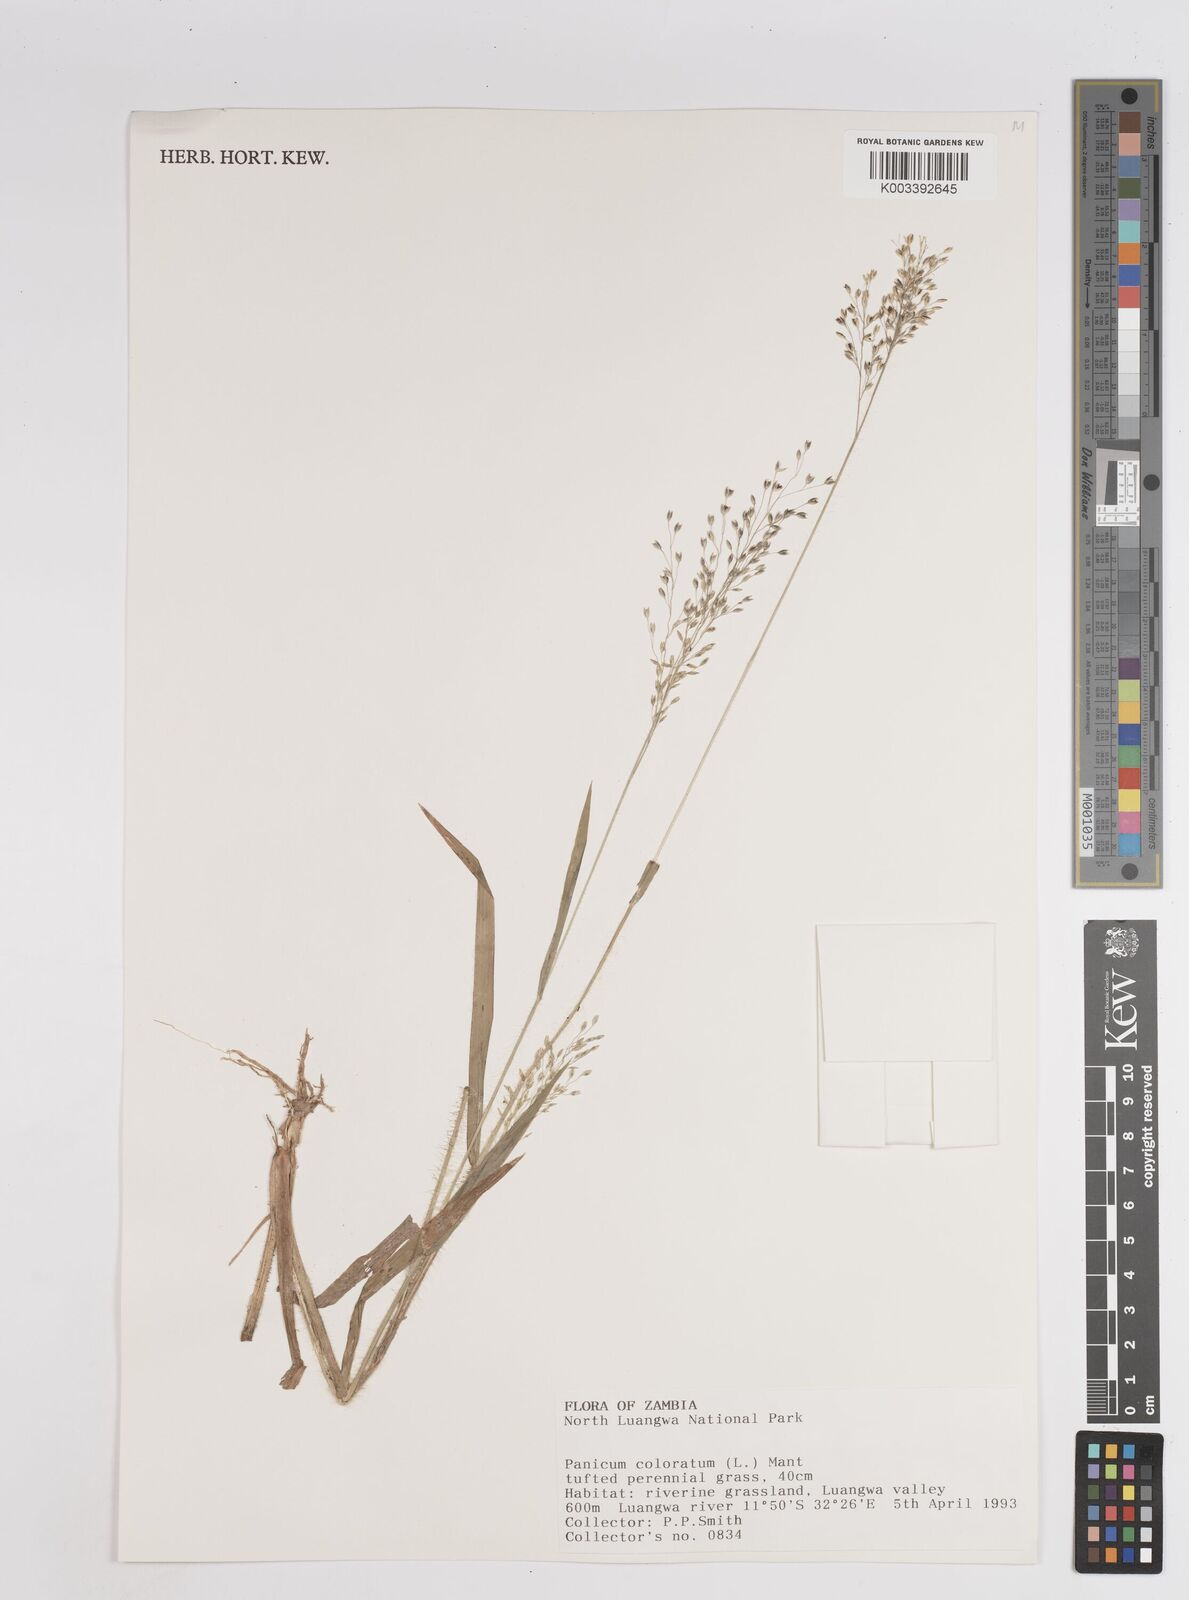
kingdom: Plantae
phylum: Tracheophyta
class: Liliopsida
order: Poales
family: Poaceae
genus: Panicum
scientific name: Panicum
